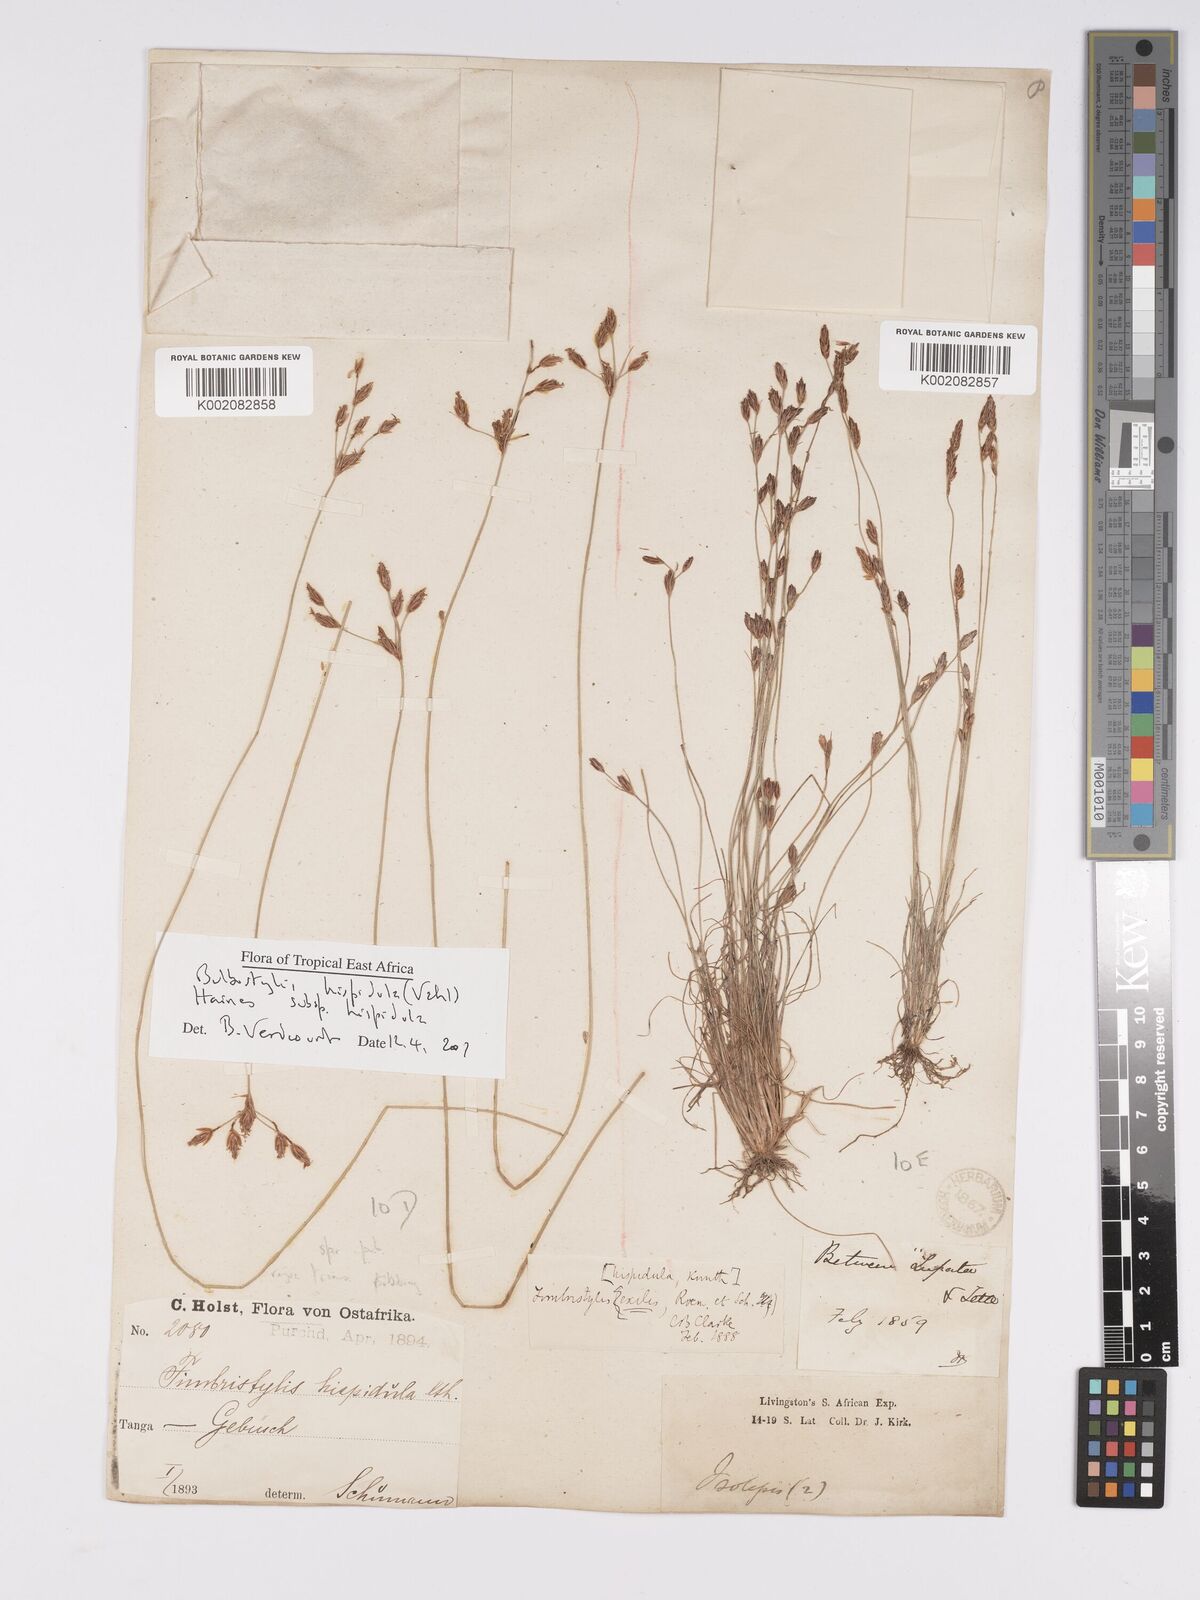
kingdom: Plantae
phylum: Tracheophyta
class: Liliopsida
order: Poales
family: Cyperaceae
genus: Bulbostylis
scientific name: Bulbostylis hispidula
